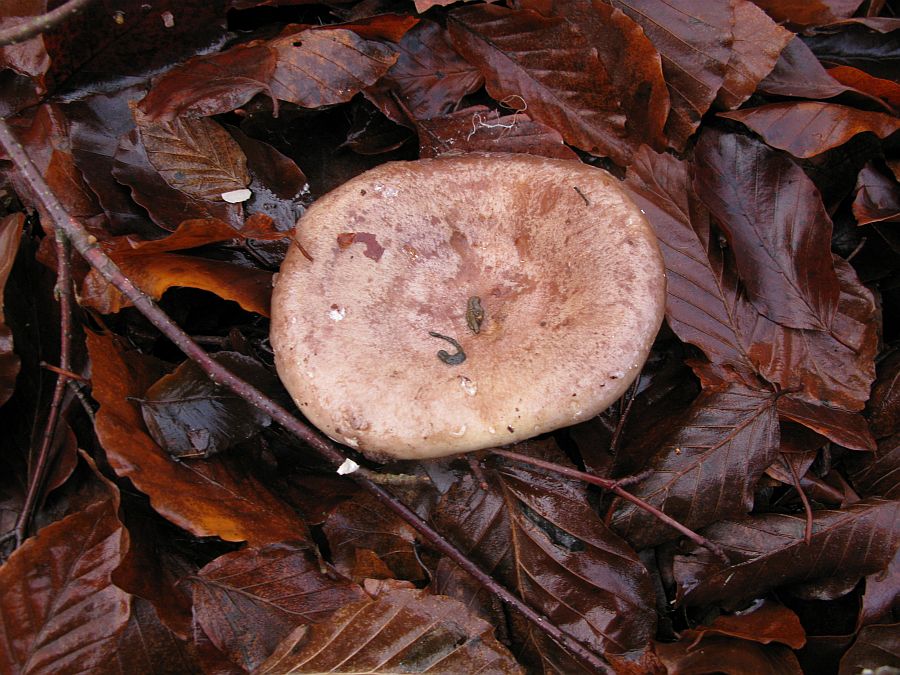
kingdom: Fungi
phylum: Basidiomycota
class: Agaricomycetes
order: Russulales
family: Russulaceae
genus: Lactarius
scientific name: Lactarius blennius
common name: dråbeplettet mælkehat
